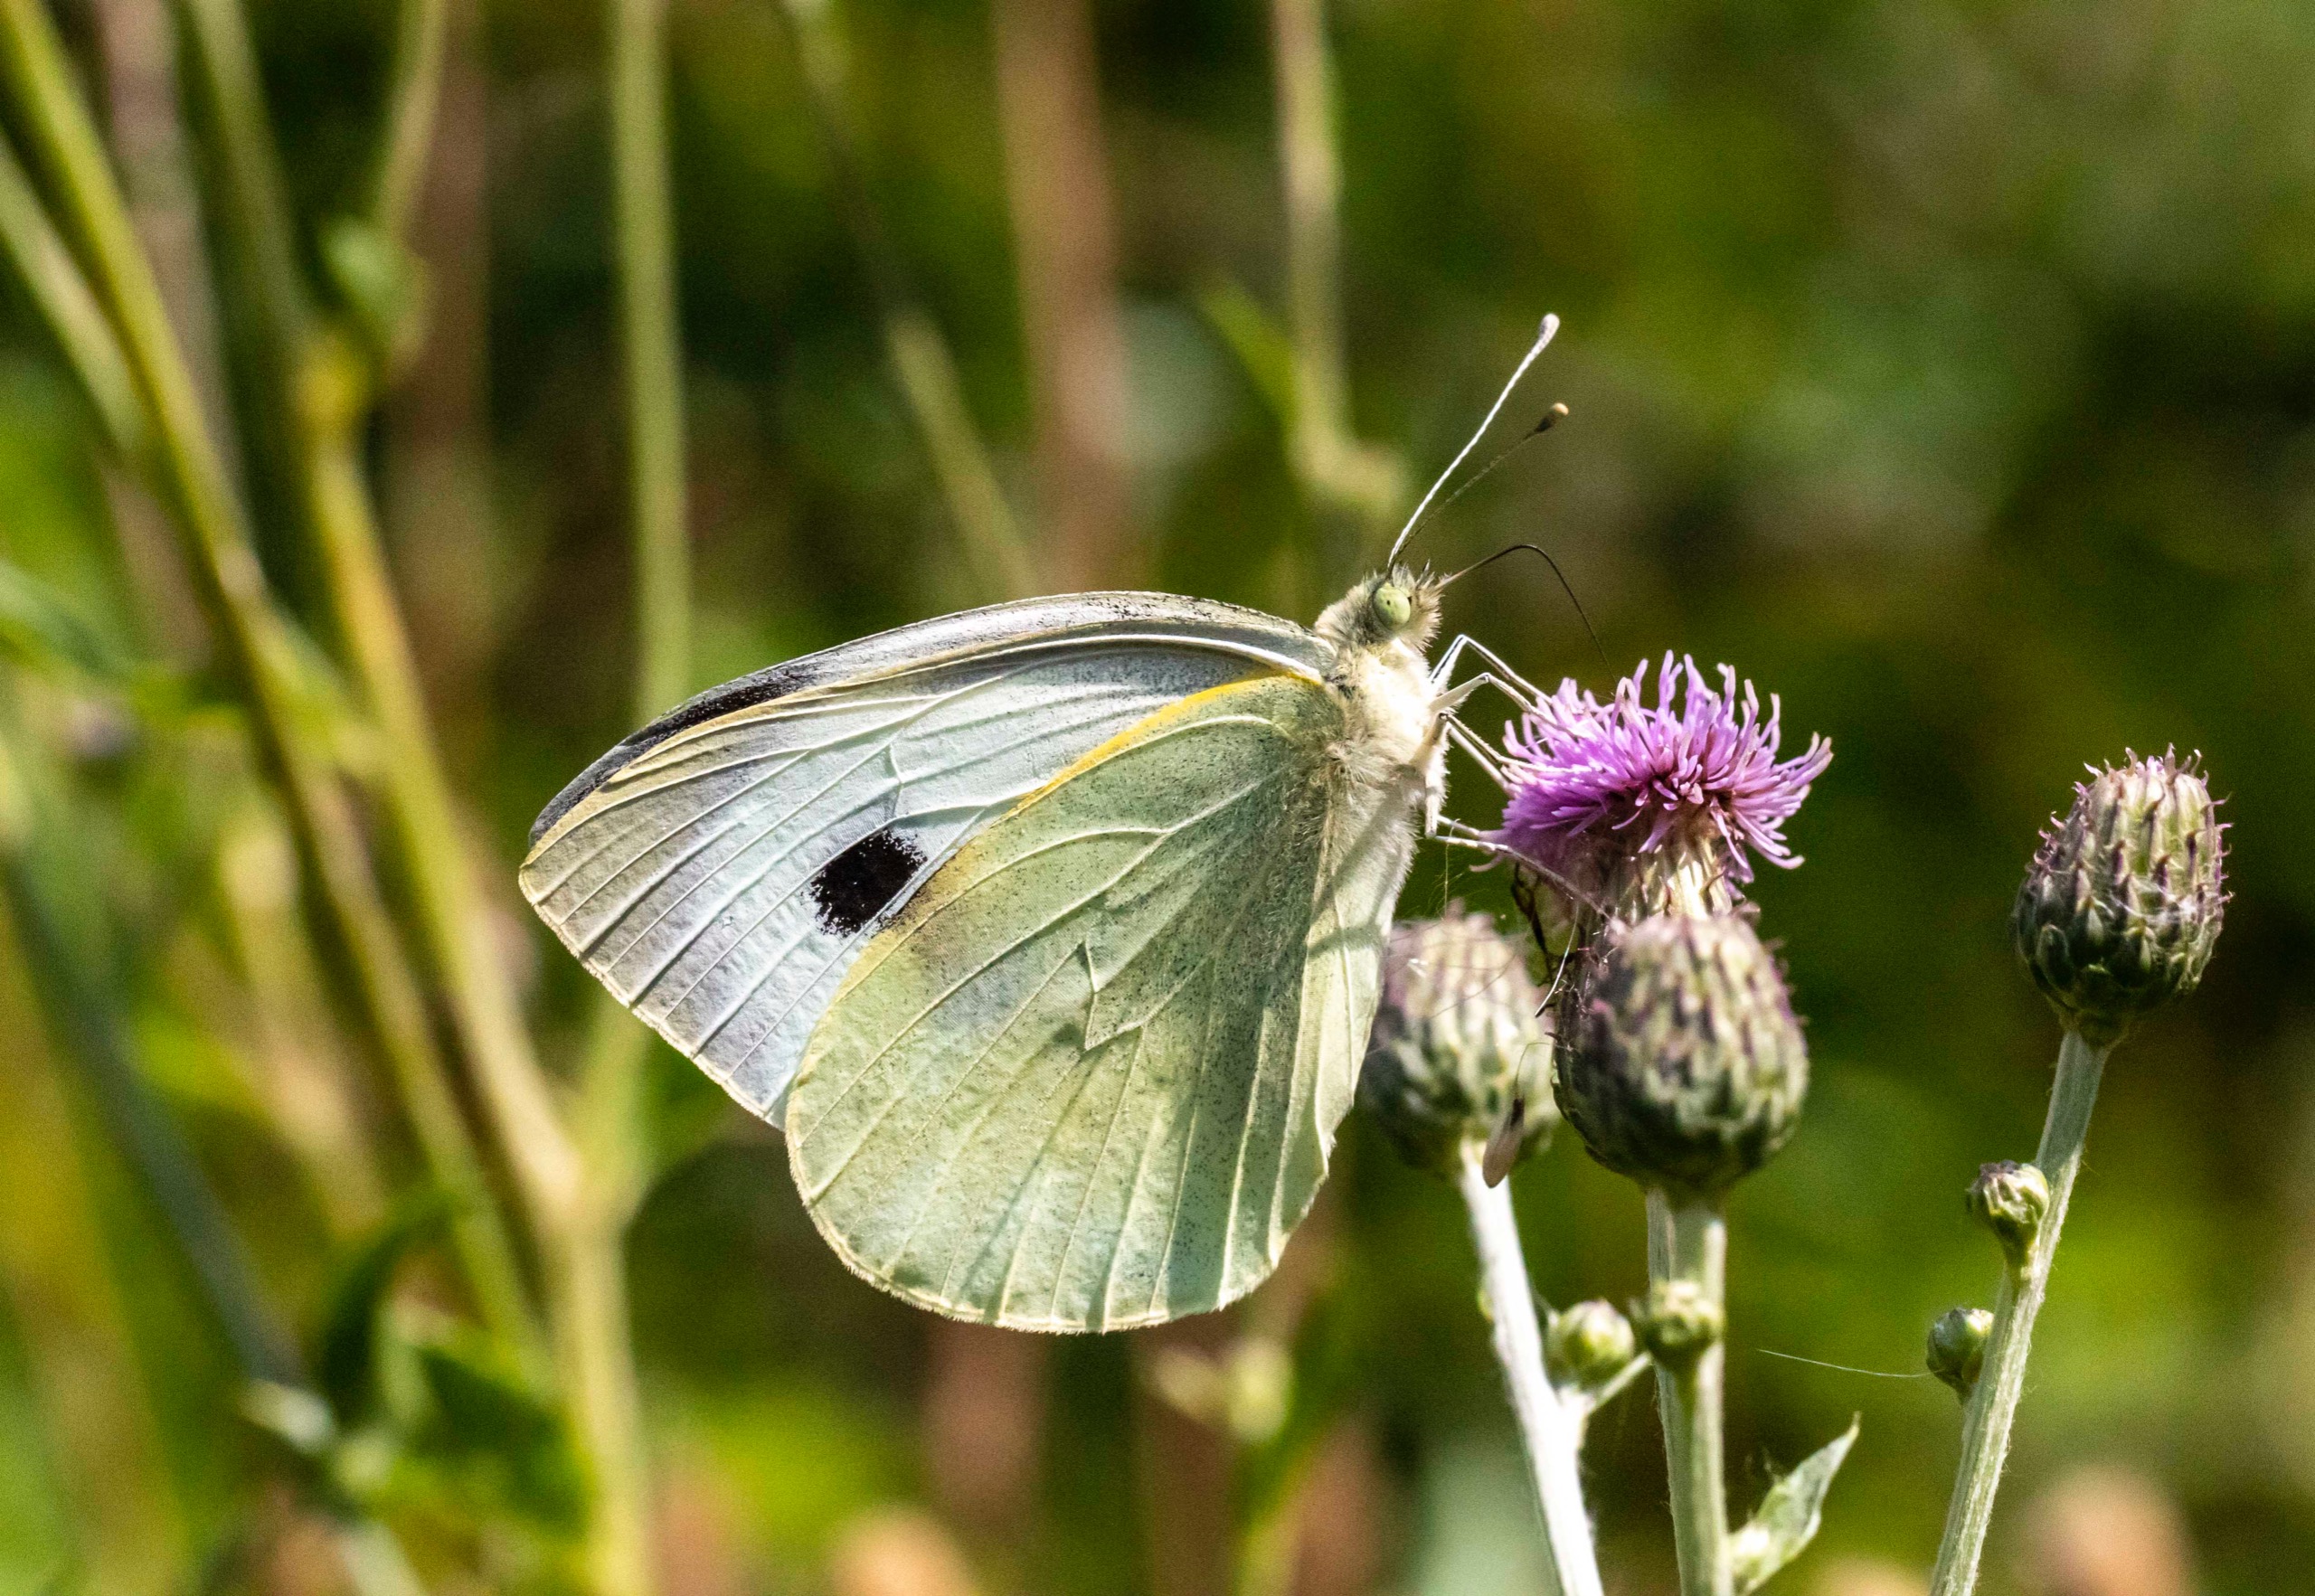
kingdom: Animalia
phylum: Arthropoda
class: Insecta
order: Lepidoptera
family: Pieridae
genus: Pieris
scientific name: Pieris brassicae
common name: Stor kålsommerfugl
